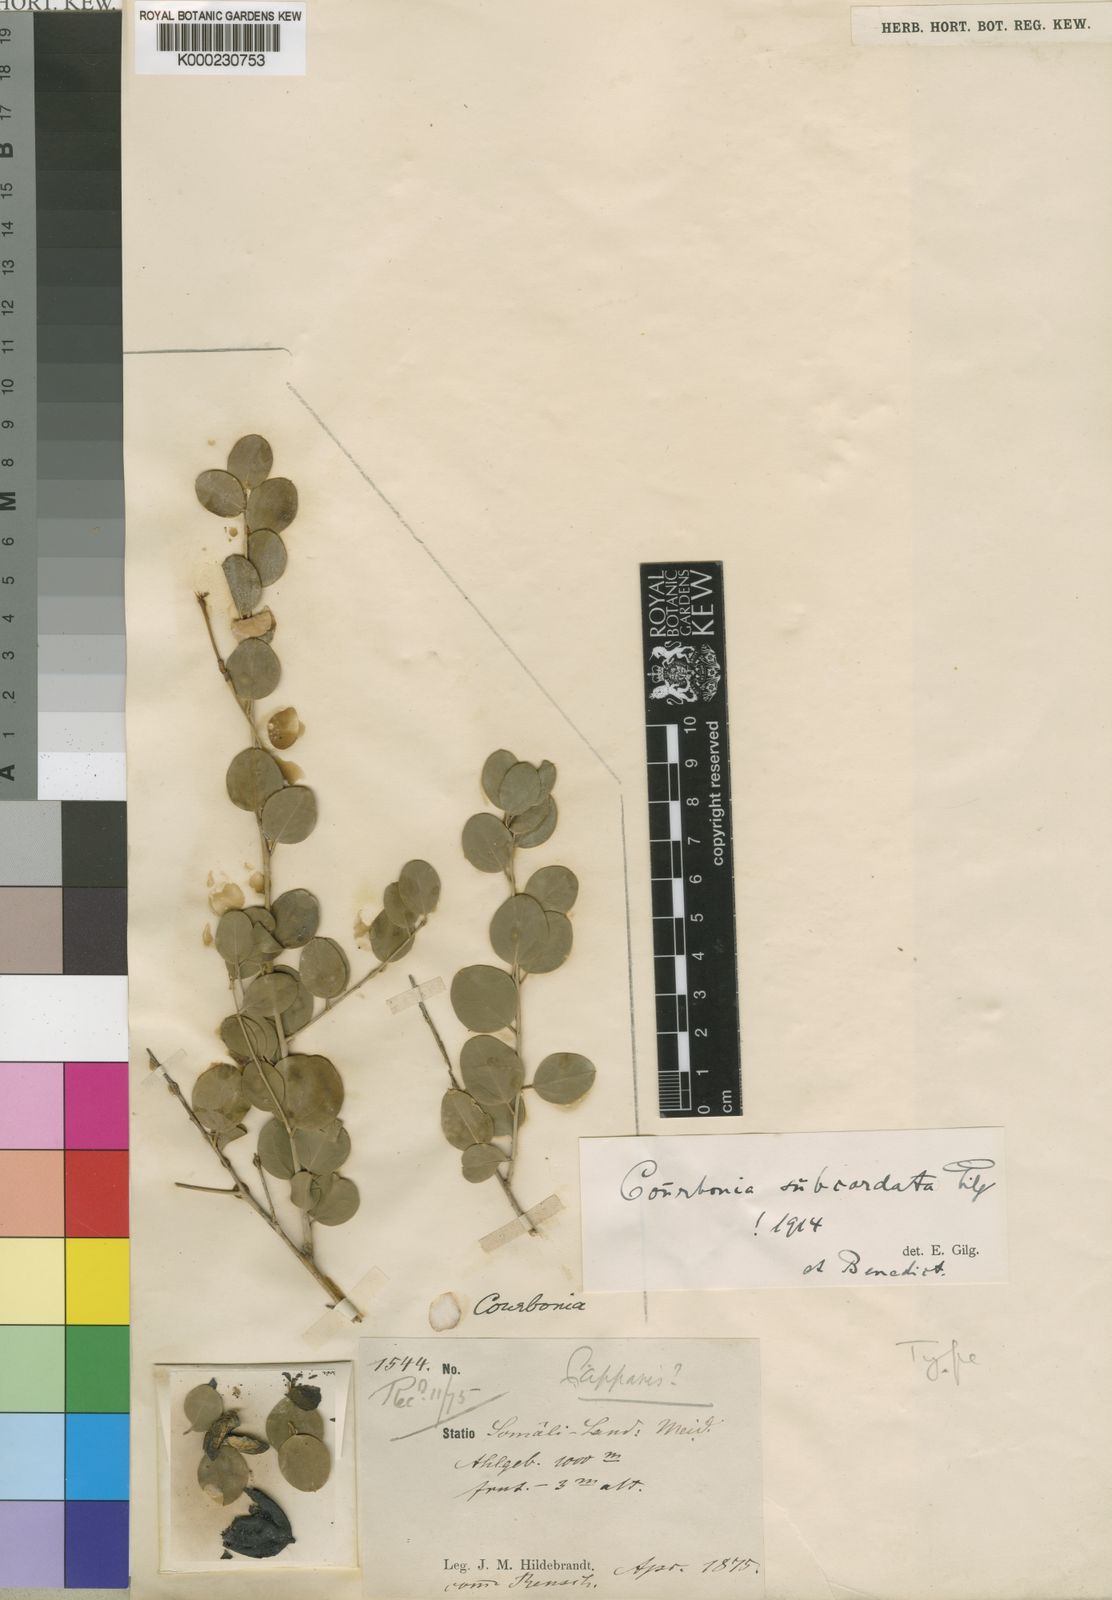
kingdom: Plantae
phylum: Tracheophyta
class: Magnoliopsida
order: Brassicales
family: Capparaceae
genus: Maerua
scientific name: Maerua subcordata
